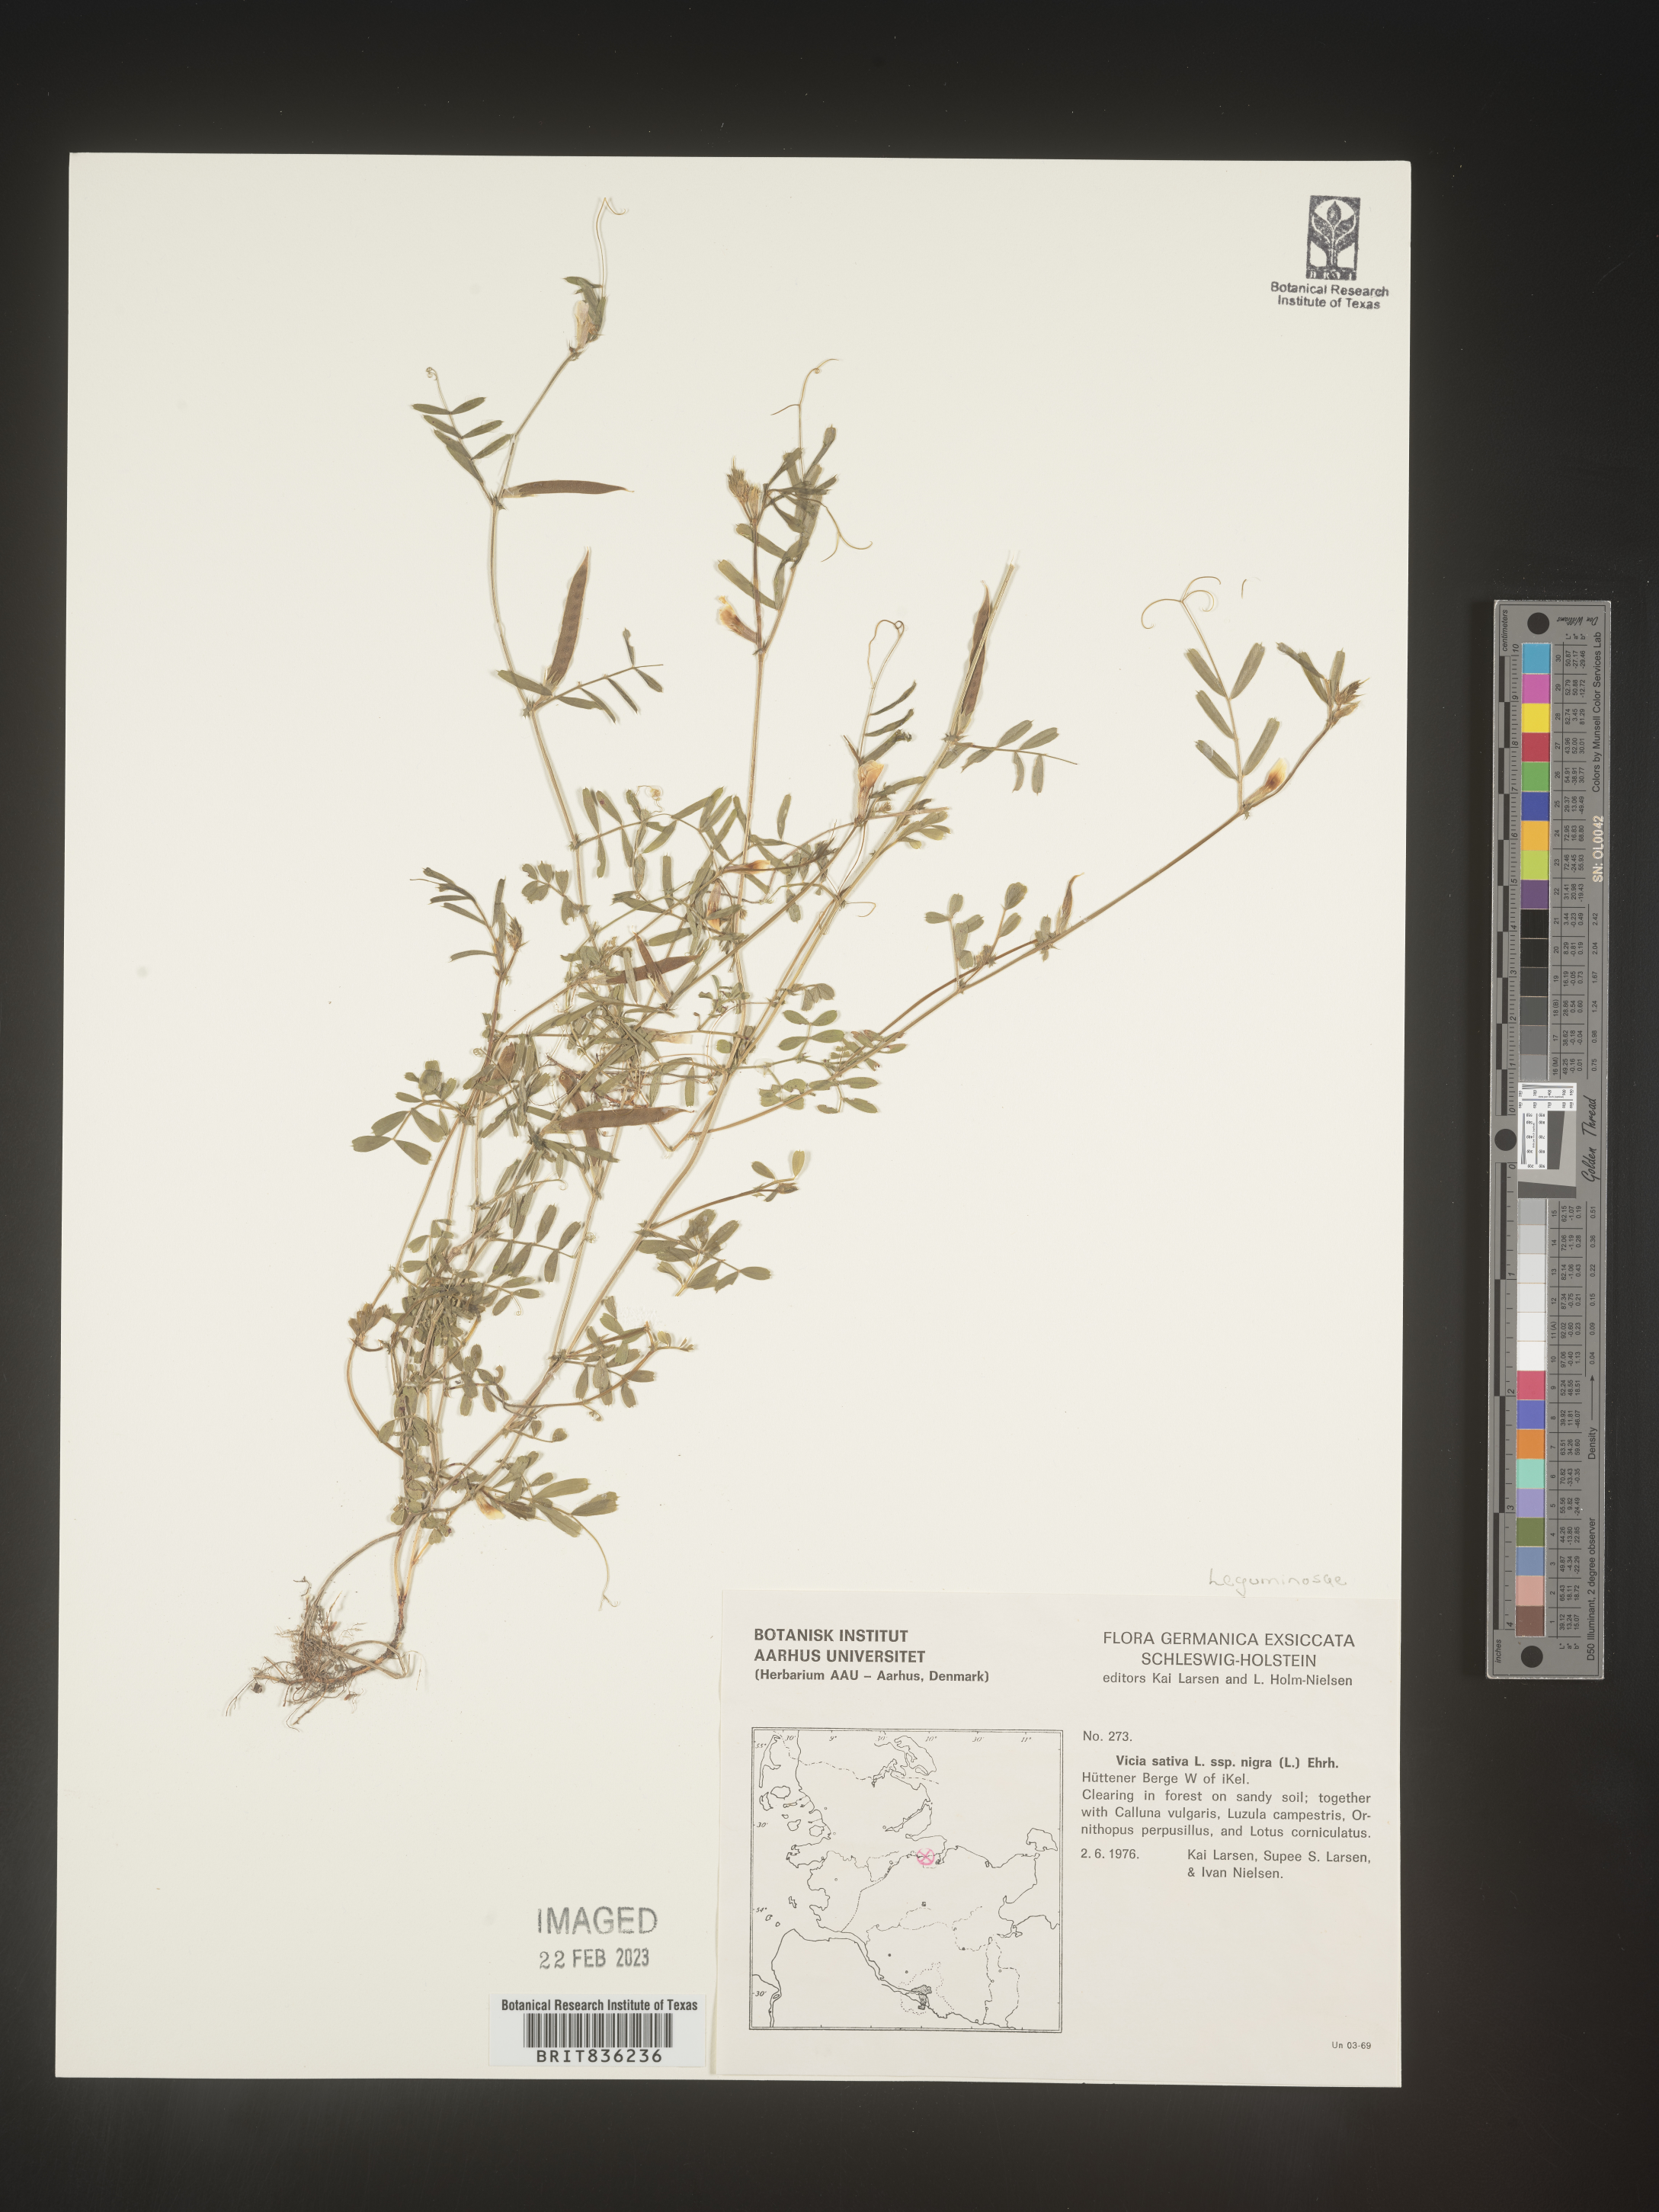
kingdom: Plantae
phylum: Tracheophyta
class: Magnoliopsida
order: Fabales
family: Fabaceae
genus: Vicia
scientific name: Vicia
